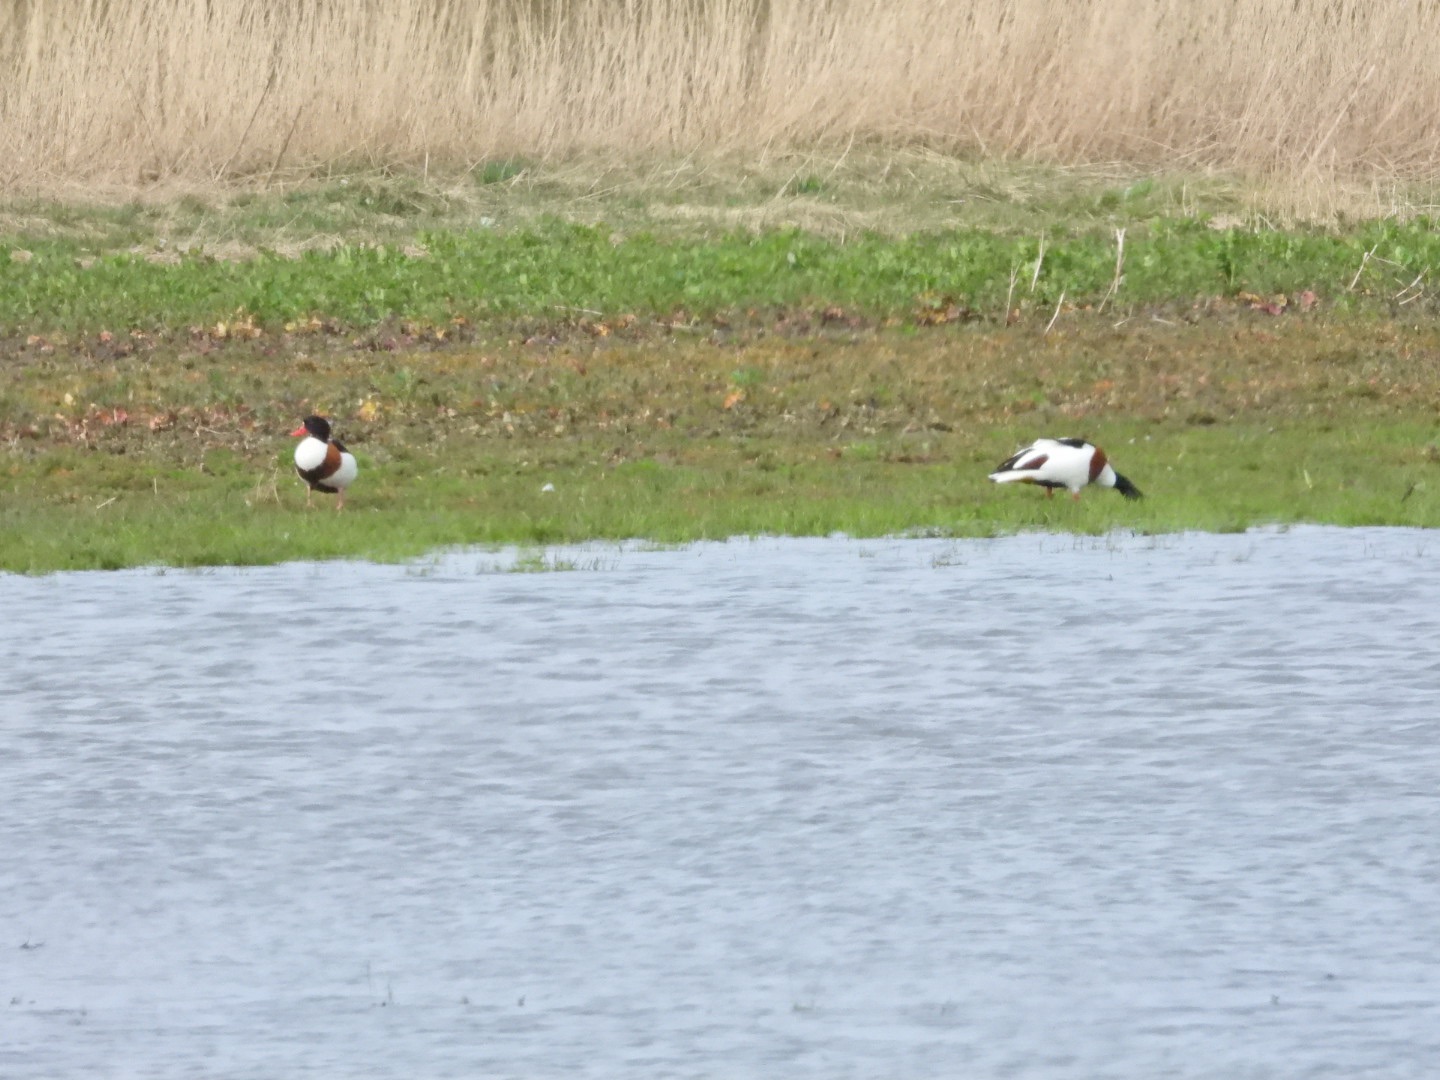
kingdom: Animalia
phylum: Chordata
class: Aves
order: Anseriformes
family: Anatidae
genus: Tadorna
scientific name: Tadorna tadorna
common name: Gravand
